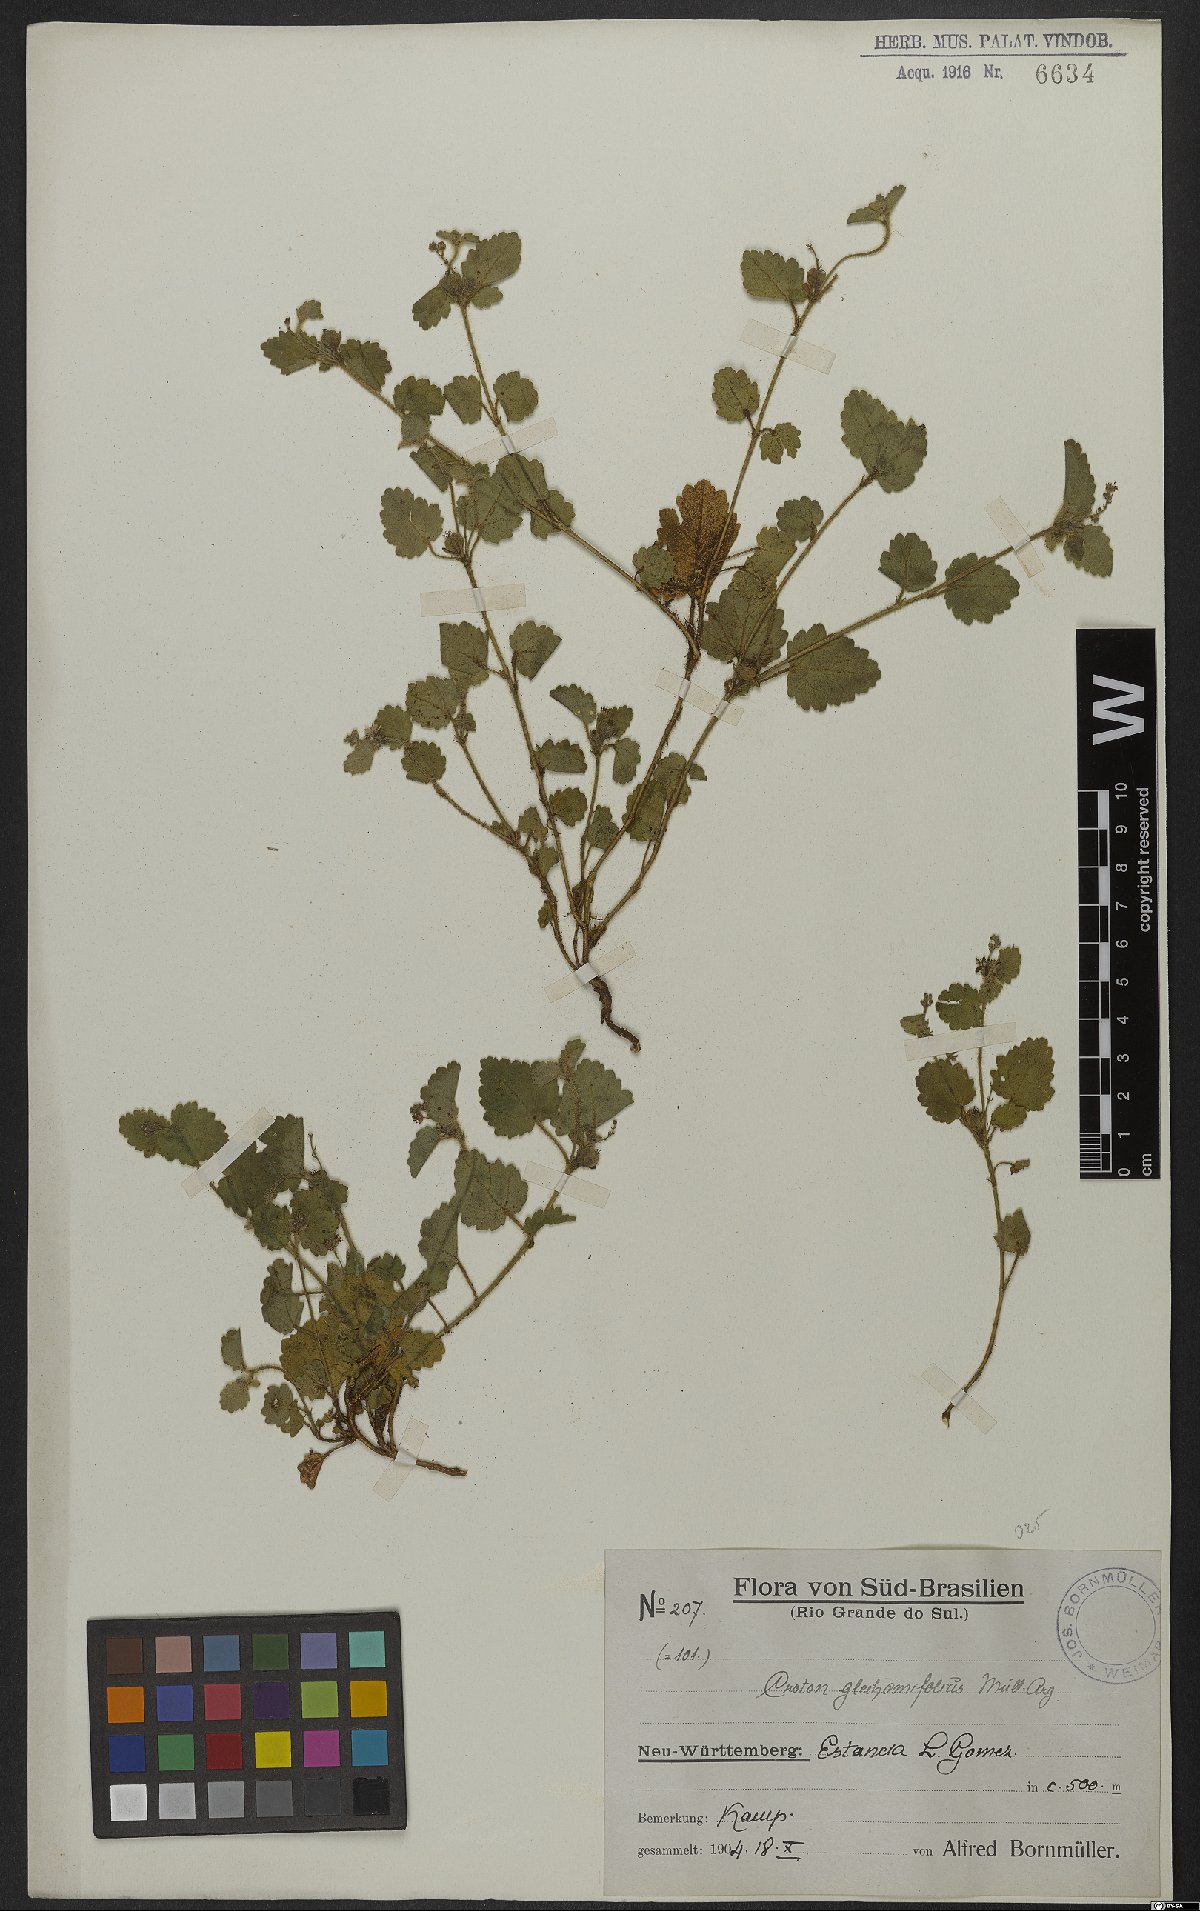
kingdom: Plantae
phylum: Tracheophyta
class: Magnoliopsida
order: Malpighiales
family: Euphorbiaceae
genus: Croton
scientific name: Croton glechomifolius
